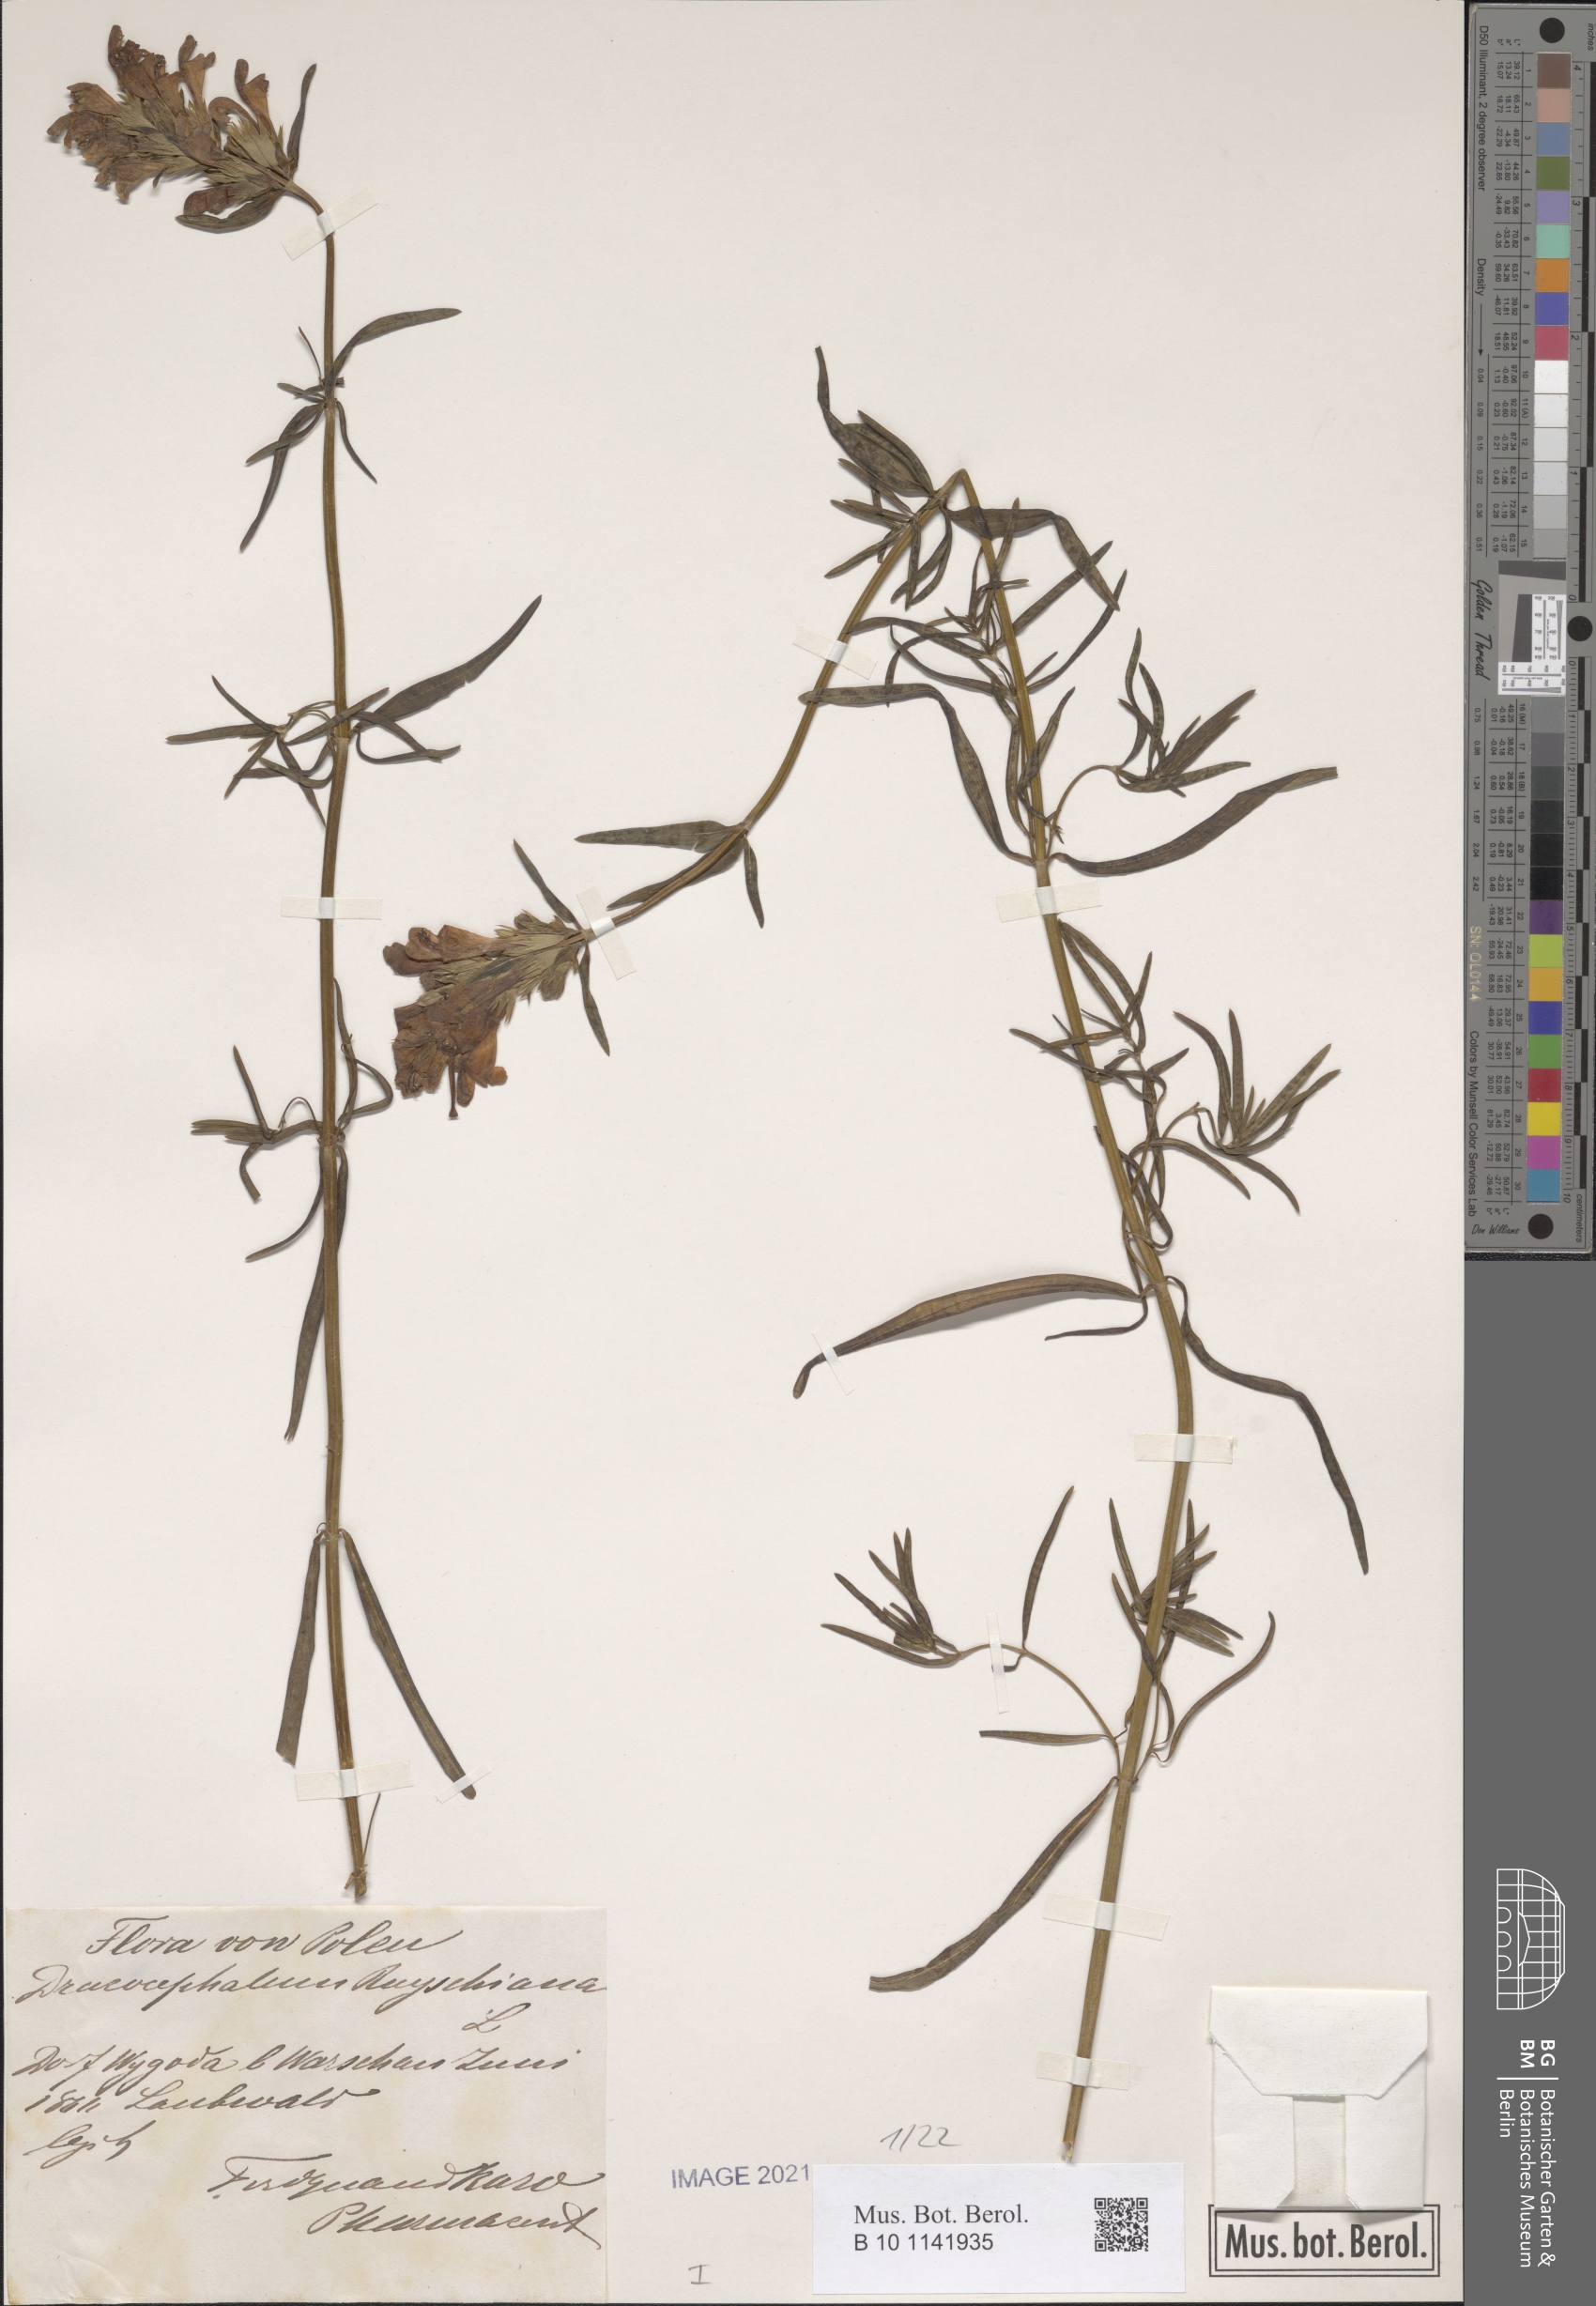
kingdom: Plantae
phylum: Tracheophyta
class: Magnoliopsida
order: Lamiales
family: Lamiaceae
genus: Dracocephalum
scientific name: Dracocephalum ruyschiana
